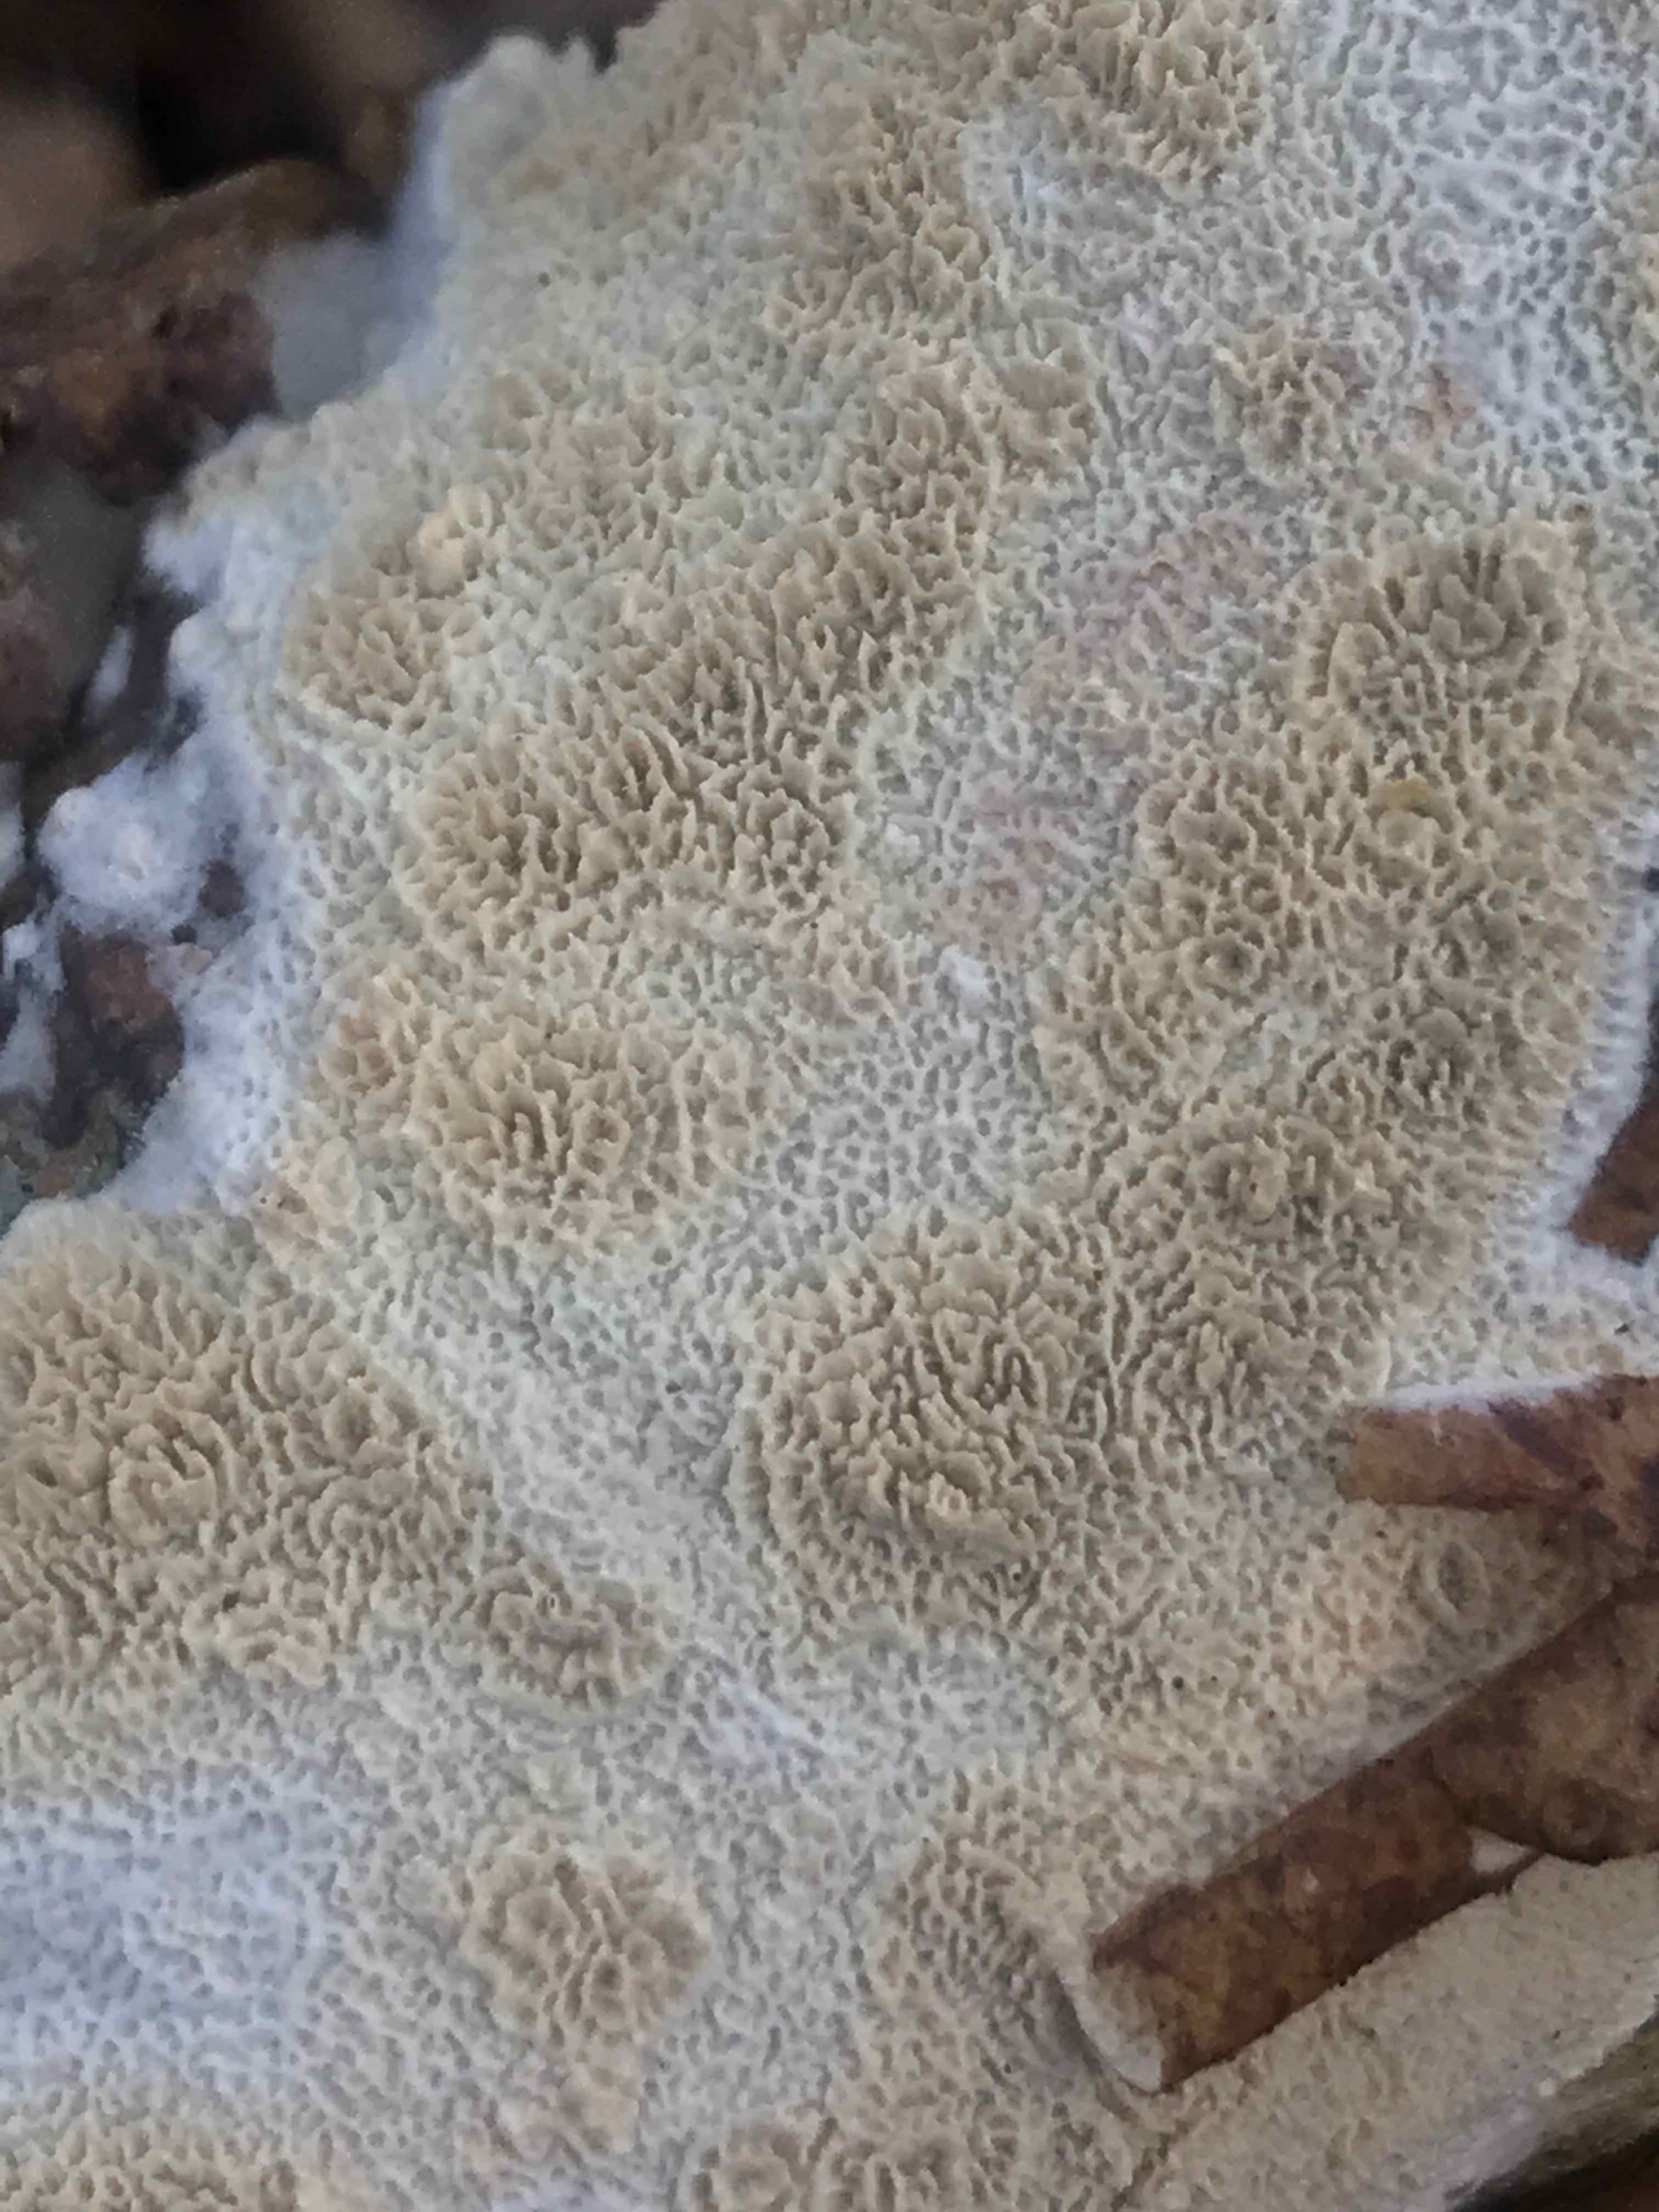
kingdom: Fungi
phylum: Basidiomycota
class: Agaricomycetes
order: Hymenochaetales
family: Schizoporaceae
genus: Xylodon
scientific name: Xylodon
